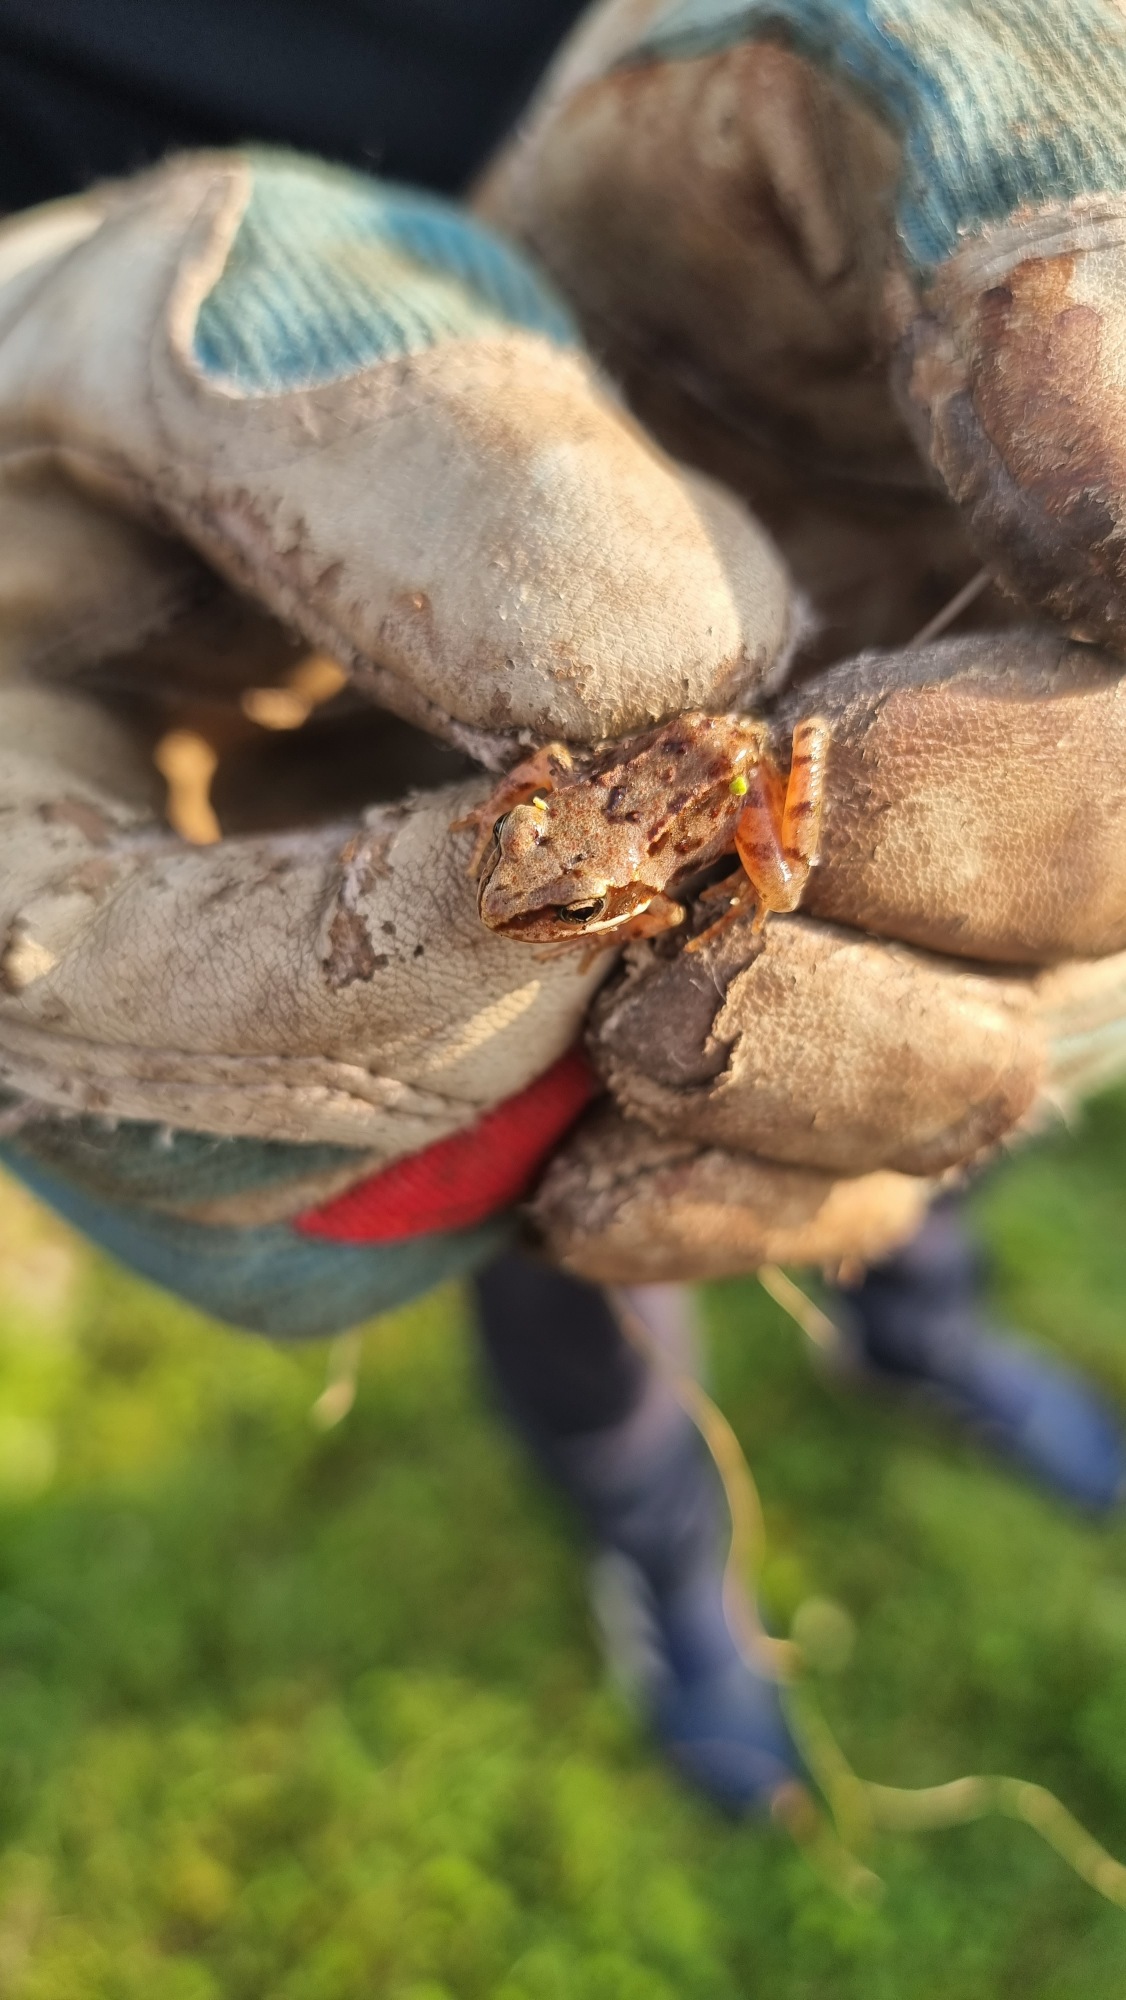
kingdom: Animalia
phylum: Chordata
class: Amphibia
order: Anura
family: Ranidae
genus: Rana
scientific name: Rana temporaria
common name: Butsnudet frø
